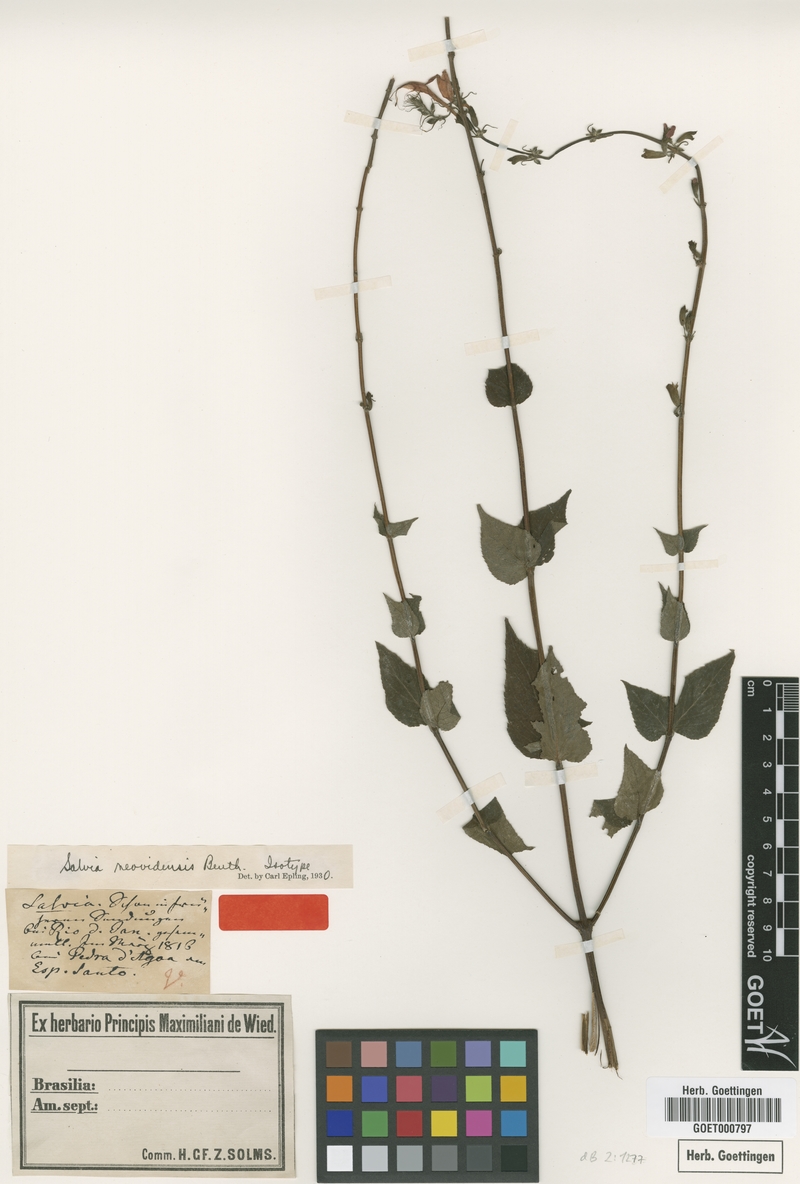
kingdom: Plantae
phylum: Tracheophyta
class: Magnoliopsida
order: Lamiales
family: Lamiaceae
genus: Salvia
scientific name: Salvia neovidensis
